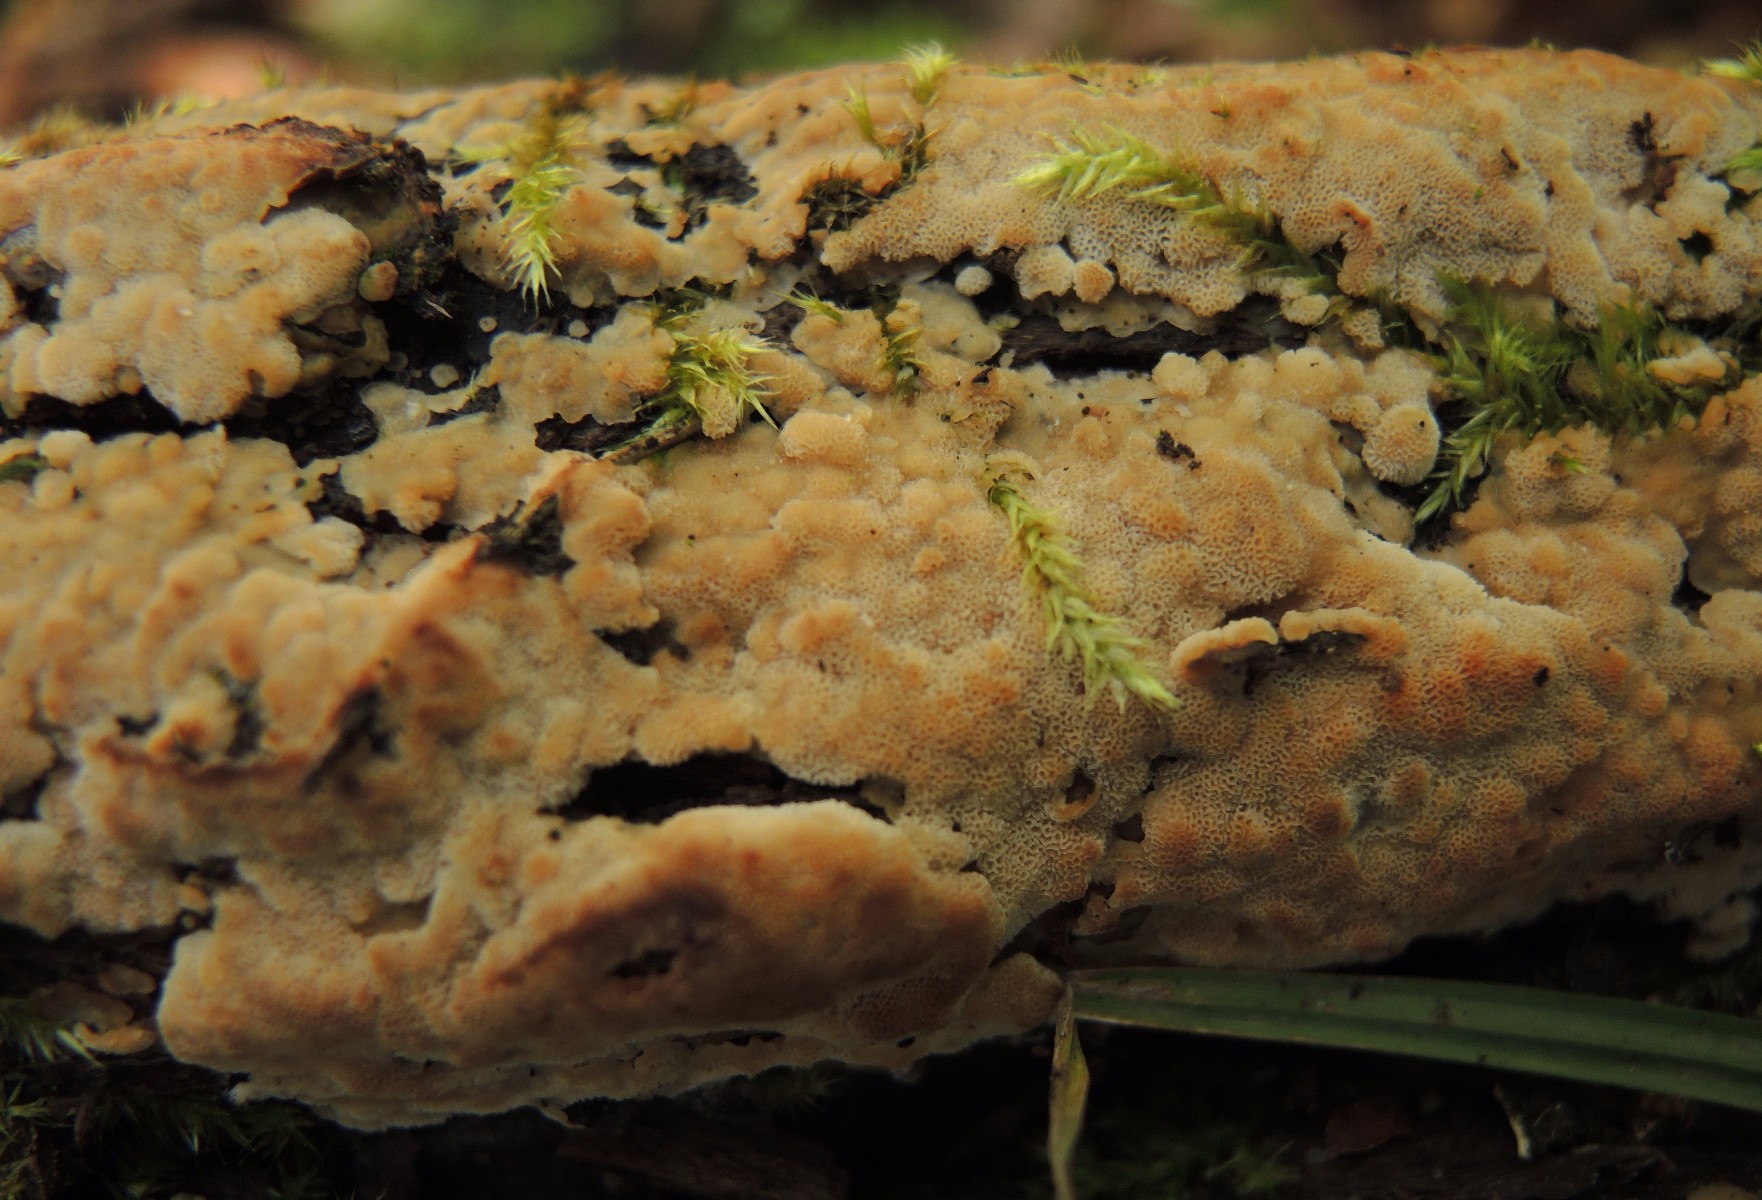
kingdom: Fungi
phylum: Basidiomycota
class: Agaricomycetes
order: Polyporales
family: Meripilaceae
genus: Rigidoporus
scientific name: Rigidoporus sanguinolentus
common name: blod-skorpeporesvamp
